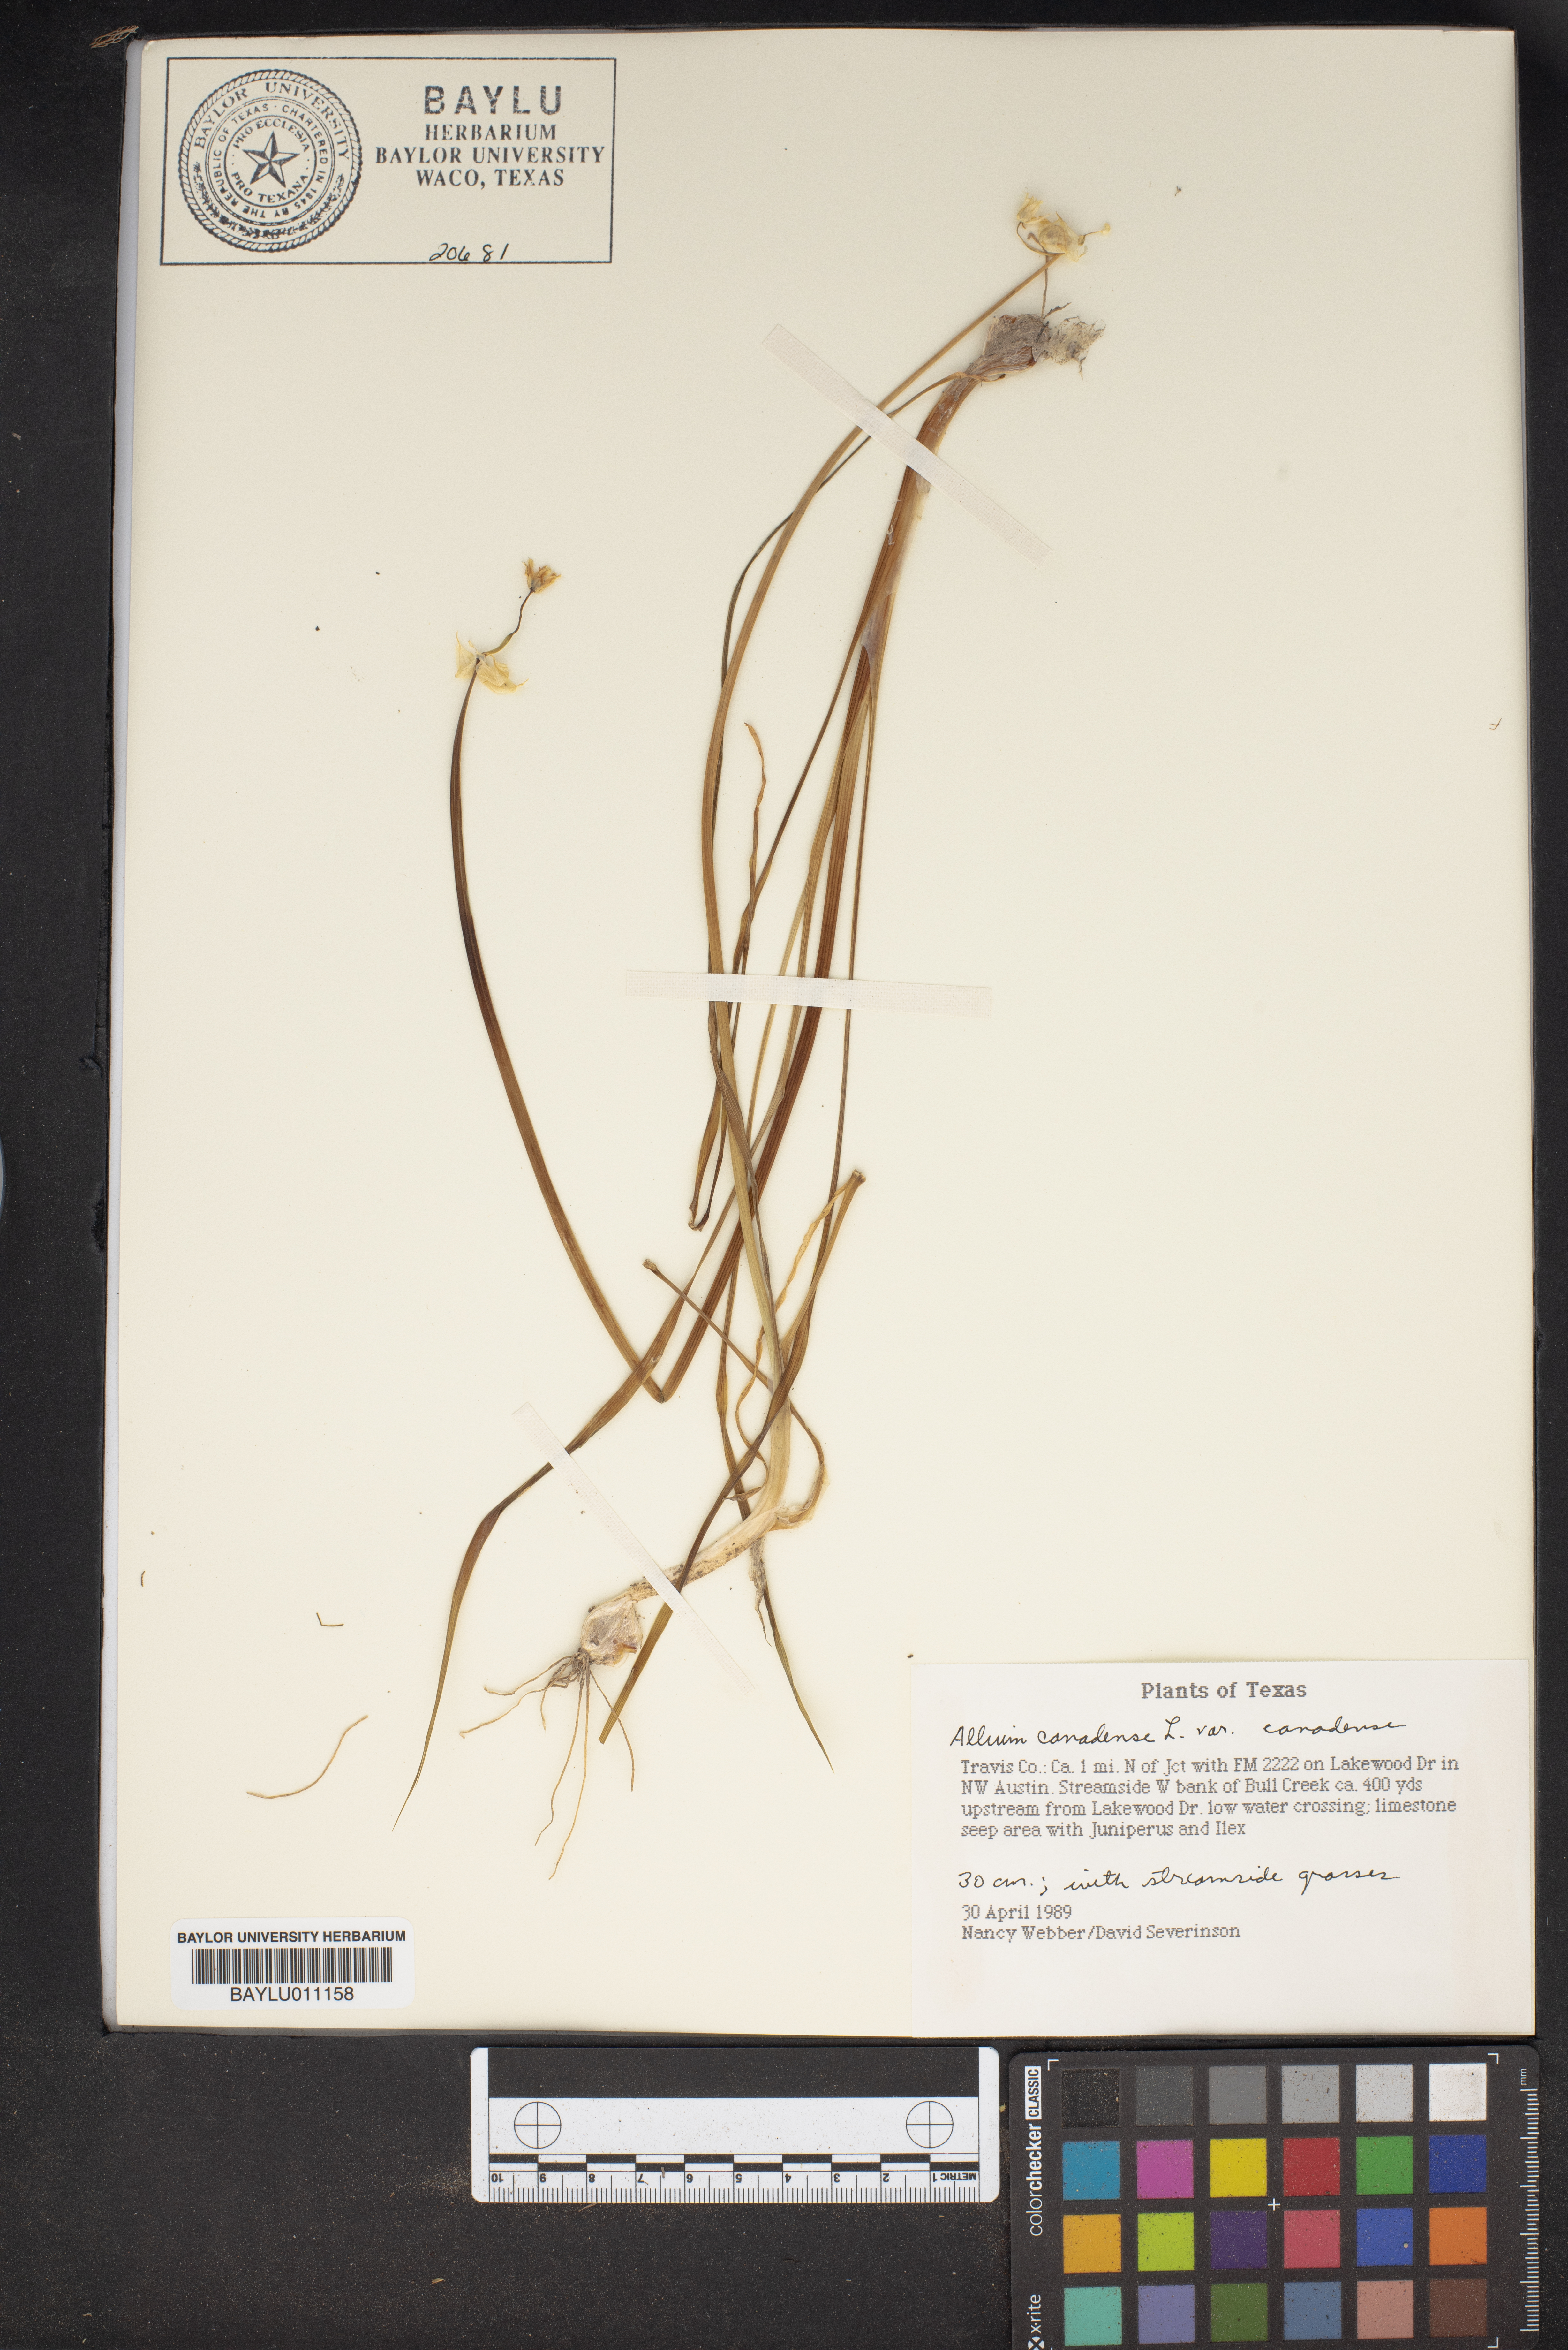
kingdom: Plantae
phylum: Tracheophyta
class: Liliopsida
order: Asparagales
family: Amaryllidaceae
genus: Allium
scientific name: Allium canadense
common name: Meadow garlic
